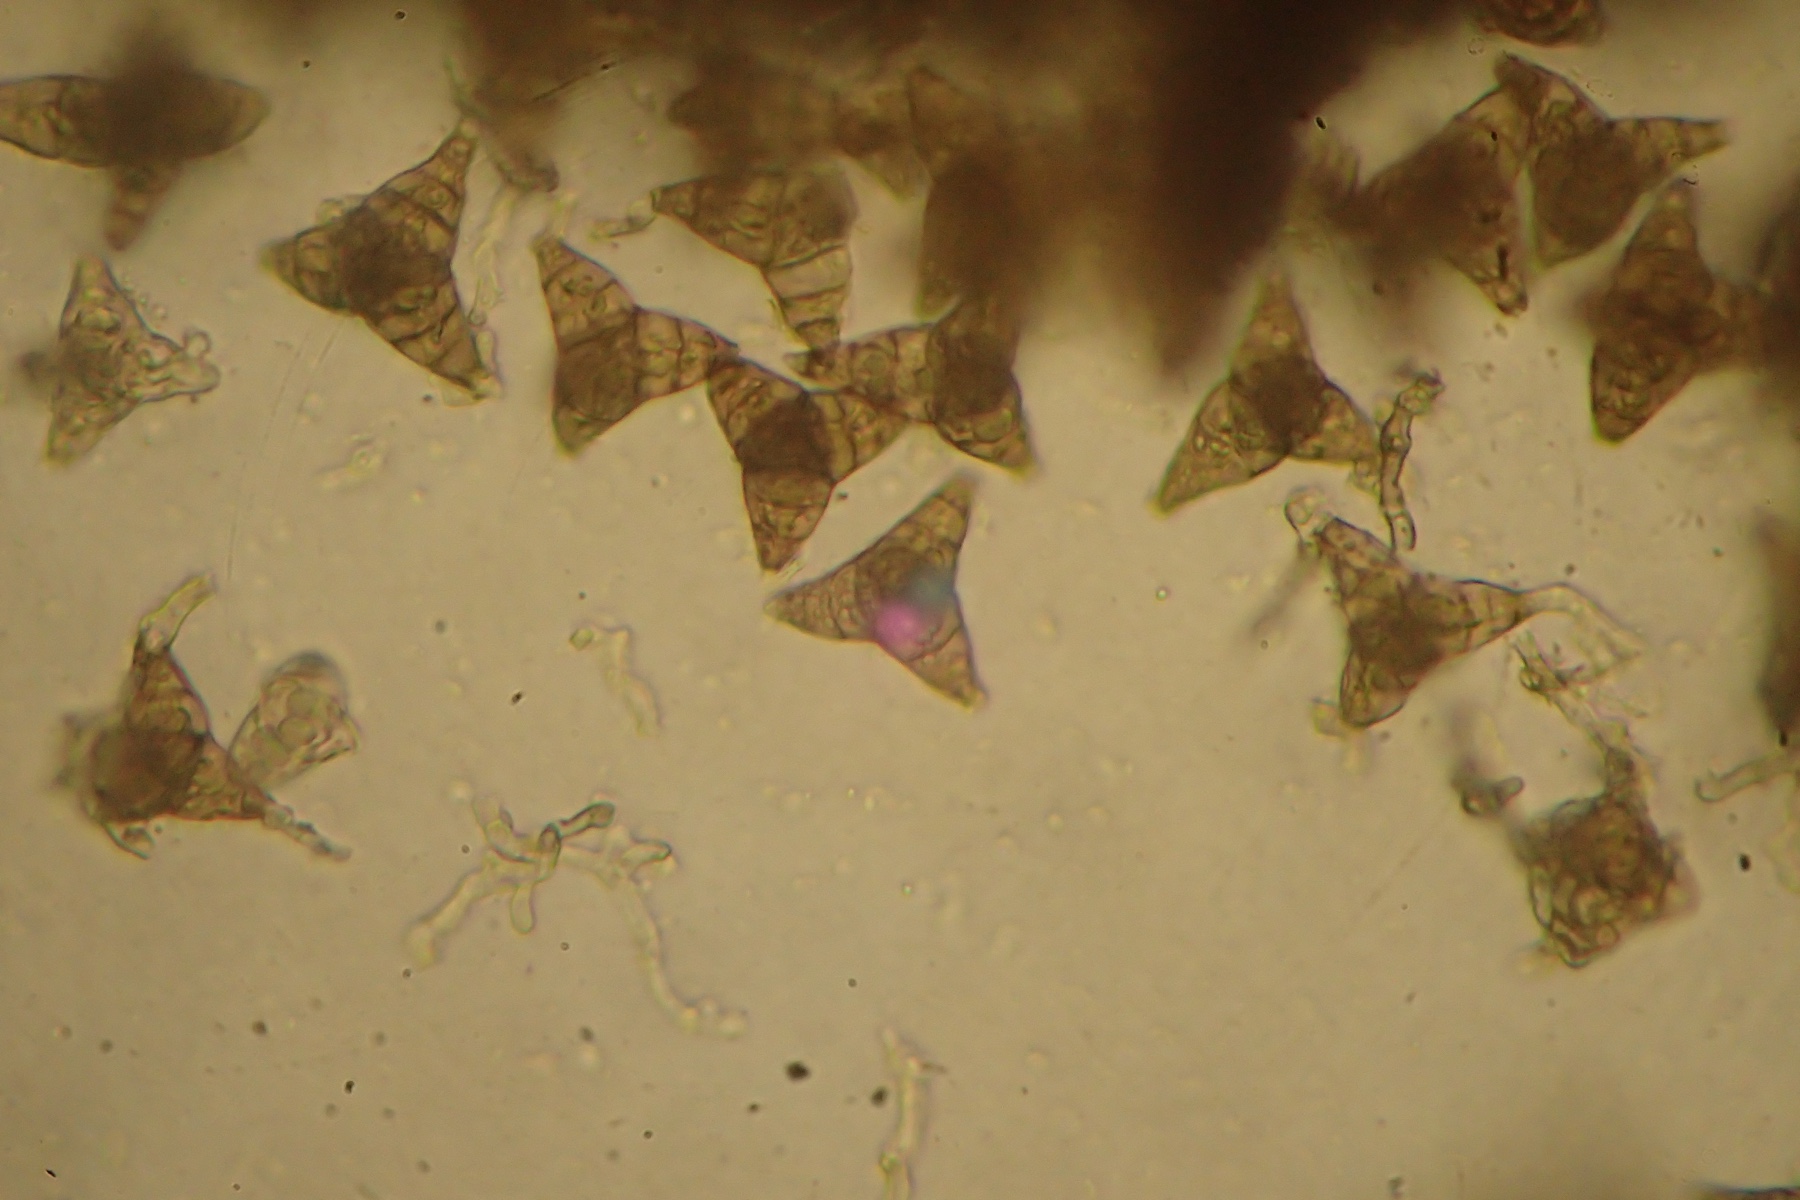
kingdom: Fungi
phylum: Ascomycota
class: Sordariomycetes
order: Diaporthales
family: Asterosporiaceae
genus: Asterosporium
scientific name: Asterosporium asterospermum
